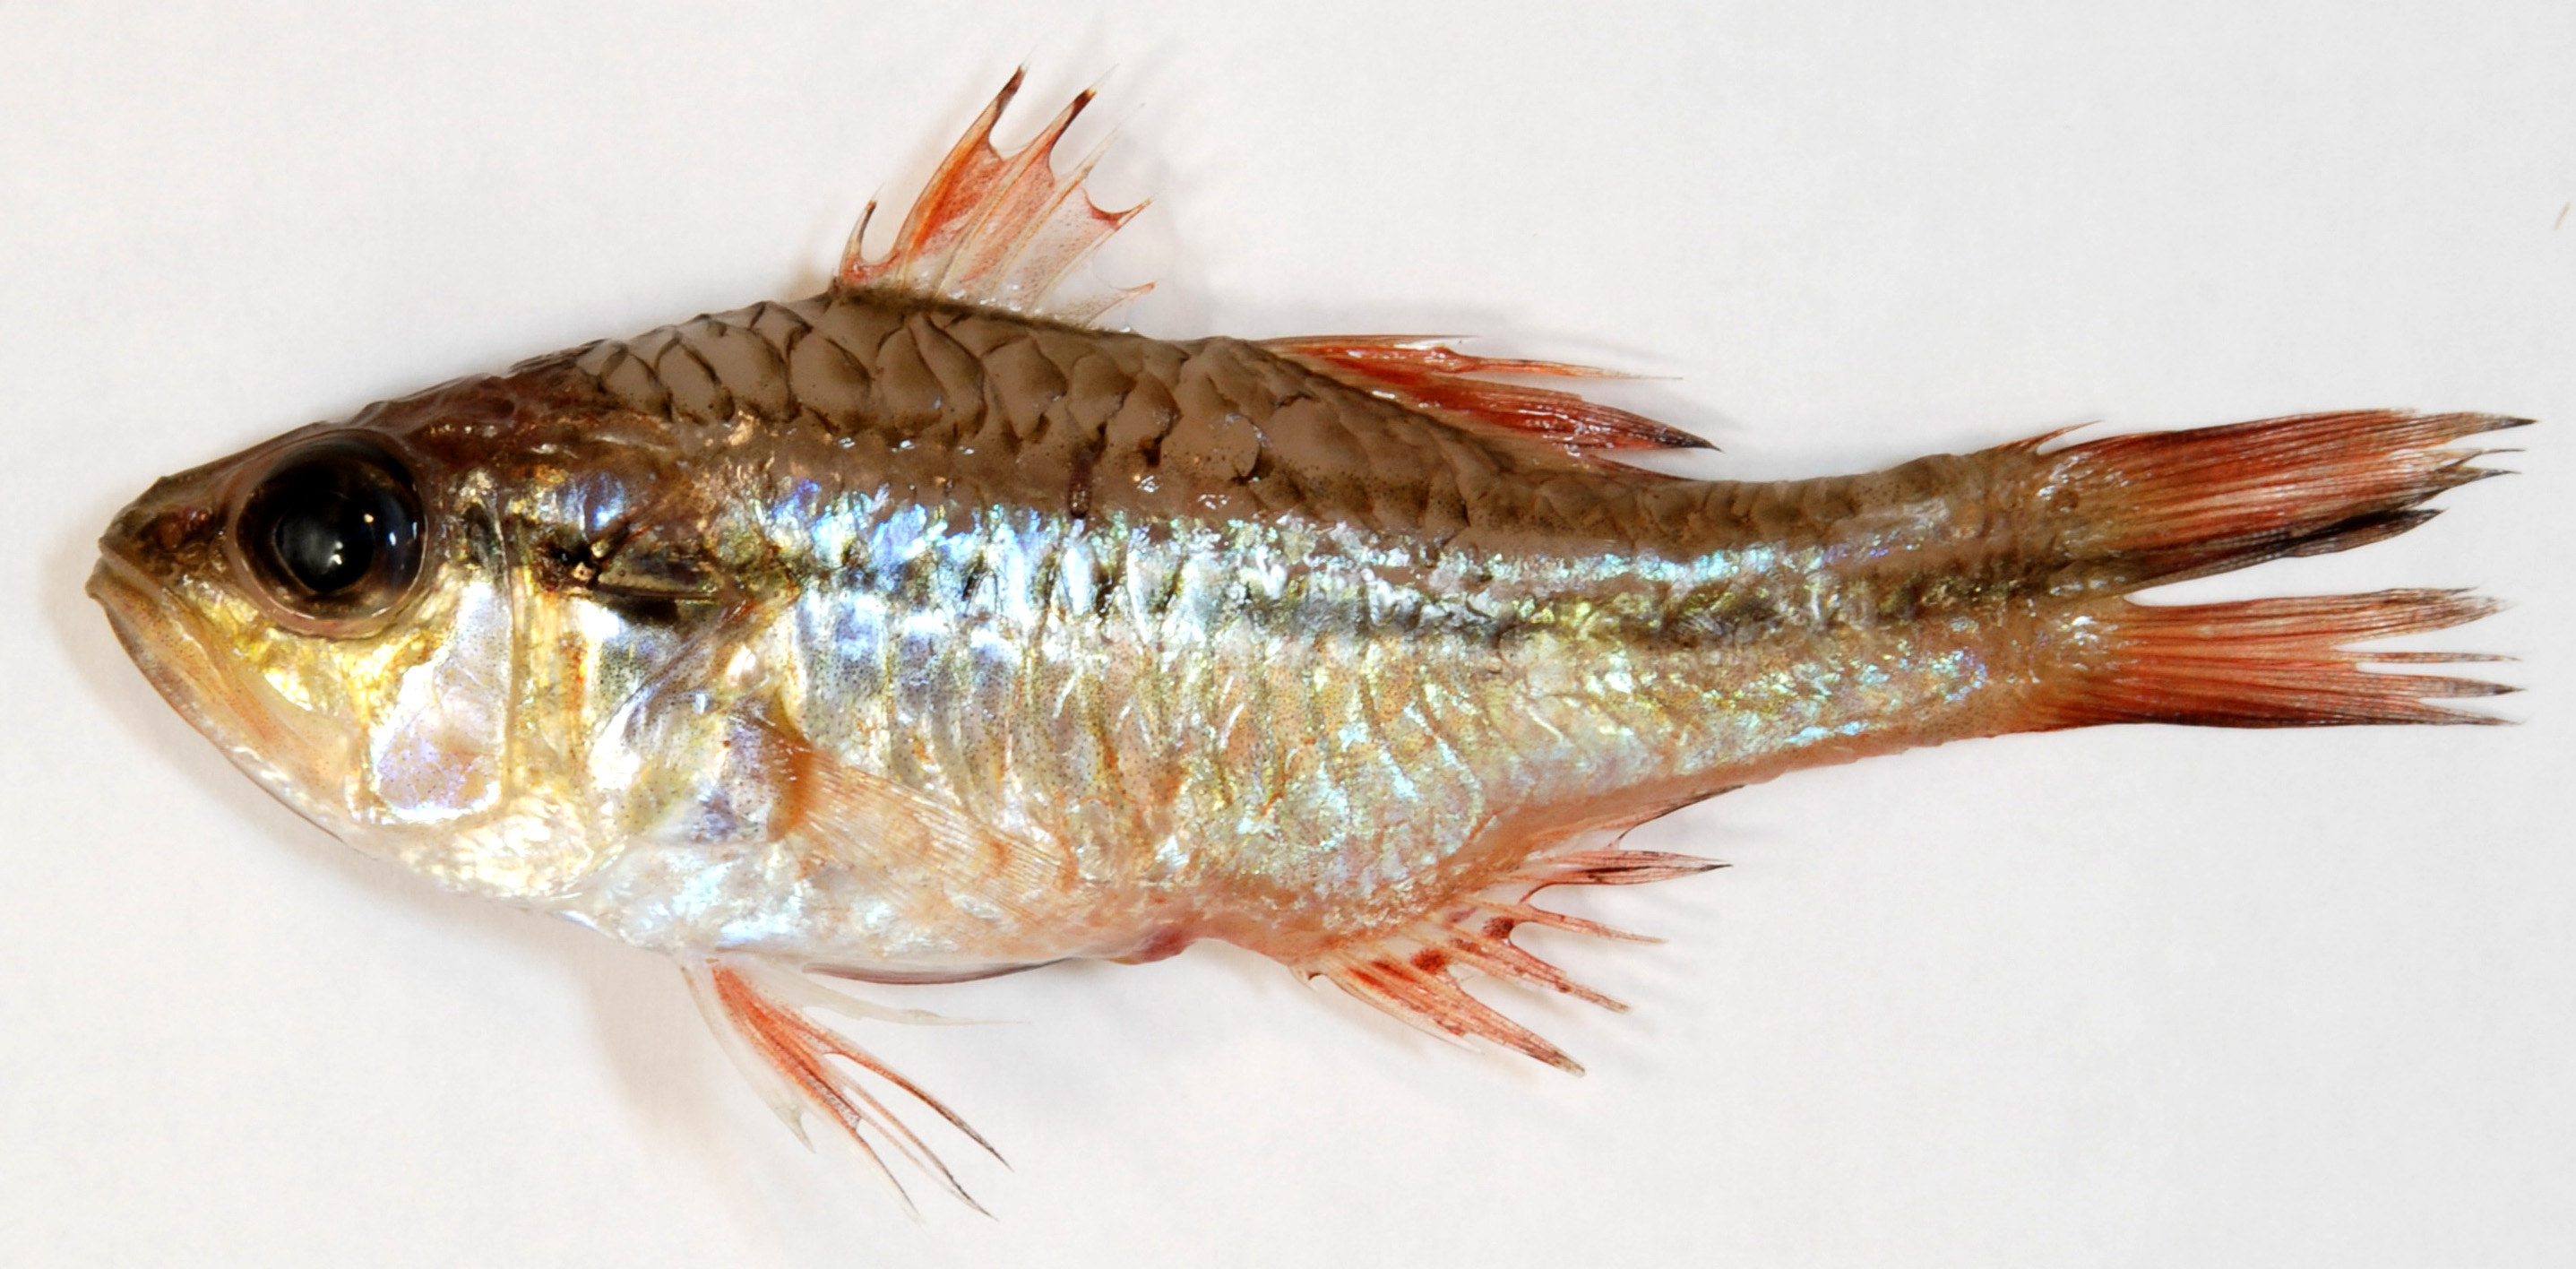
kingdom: Animalia
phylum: Chordata
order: Perciformes
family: Apogonidae
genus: Ostorhinchus
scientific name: Ostorhinchus fasciatus
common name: Twostripe cardinal
